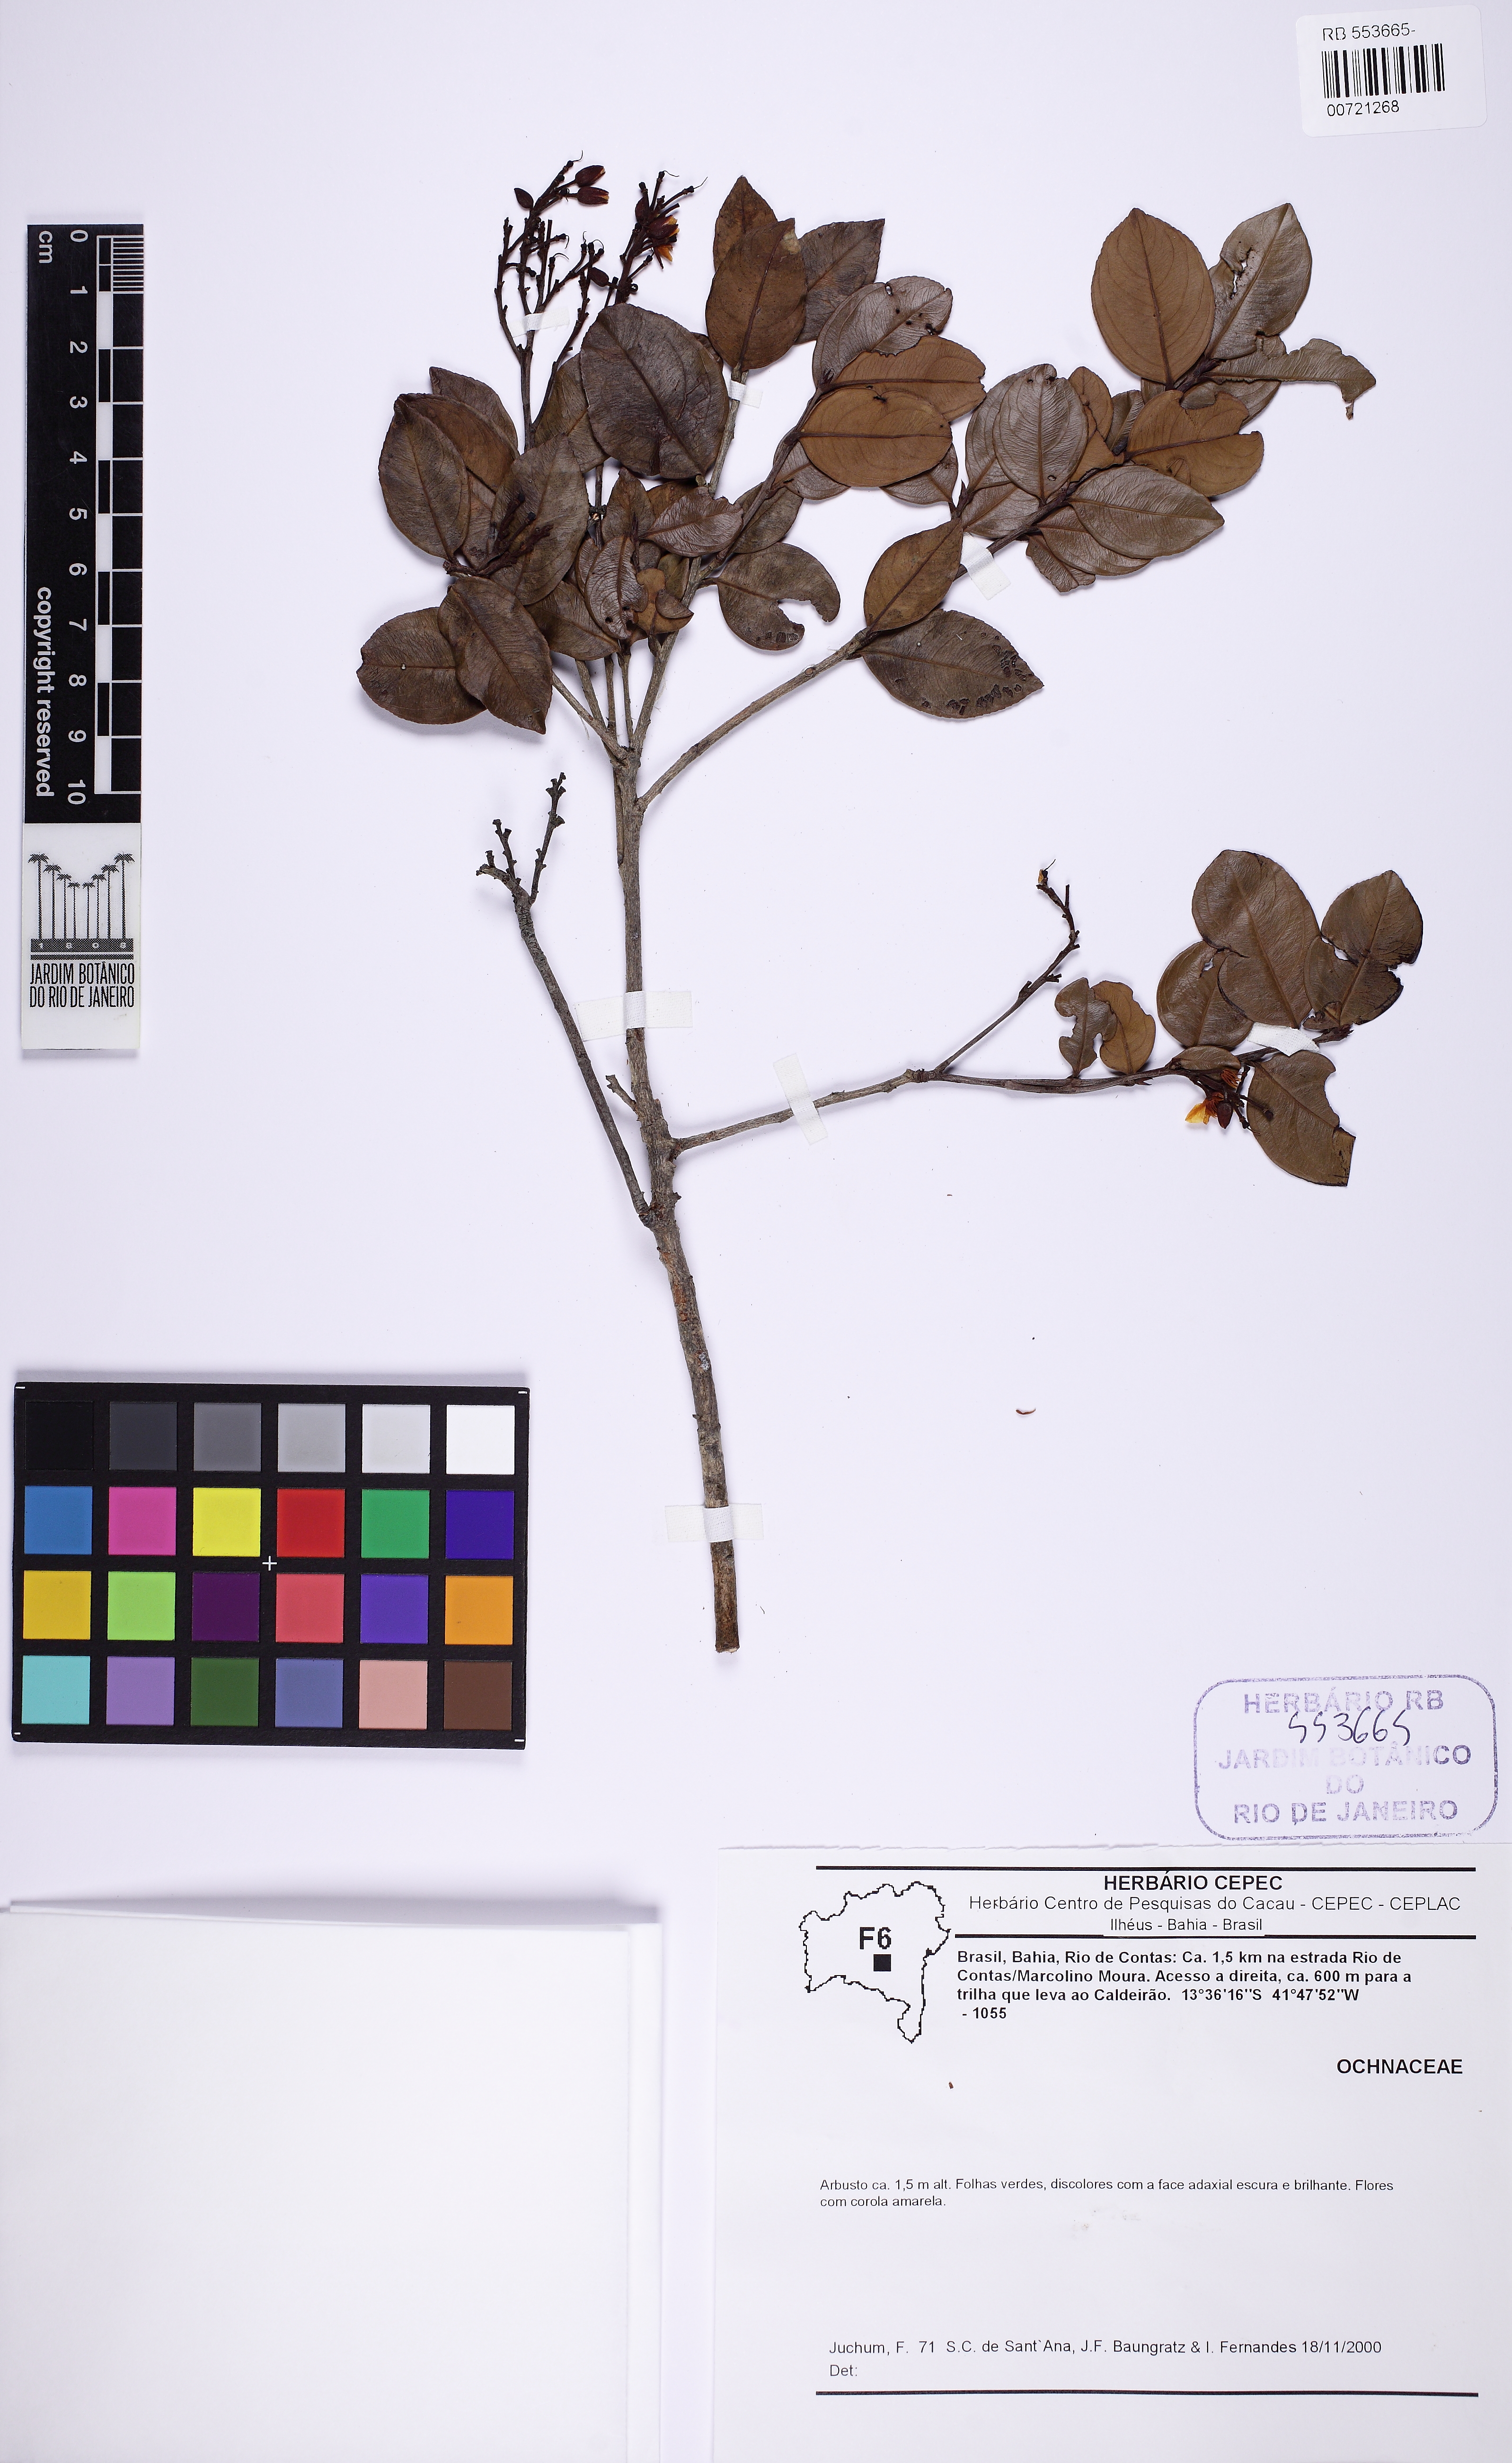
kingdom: Plantae
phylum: Tracheophyta
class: Magnoliopsida
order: Malpighiales
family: Ochnaceae
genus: Ouratea
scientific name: Ouratea
